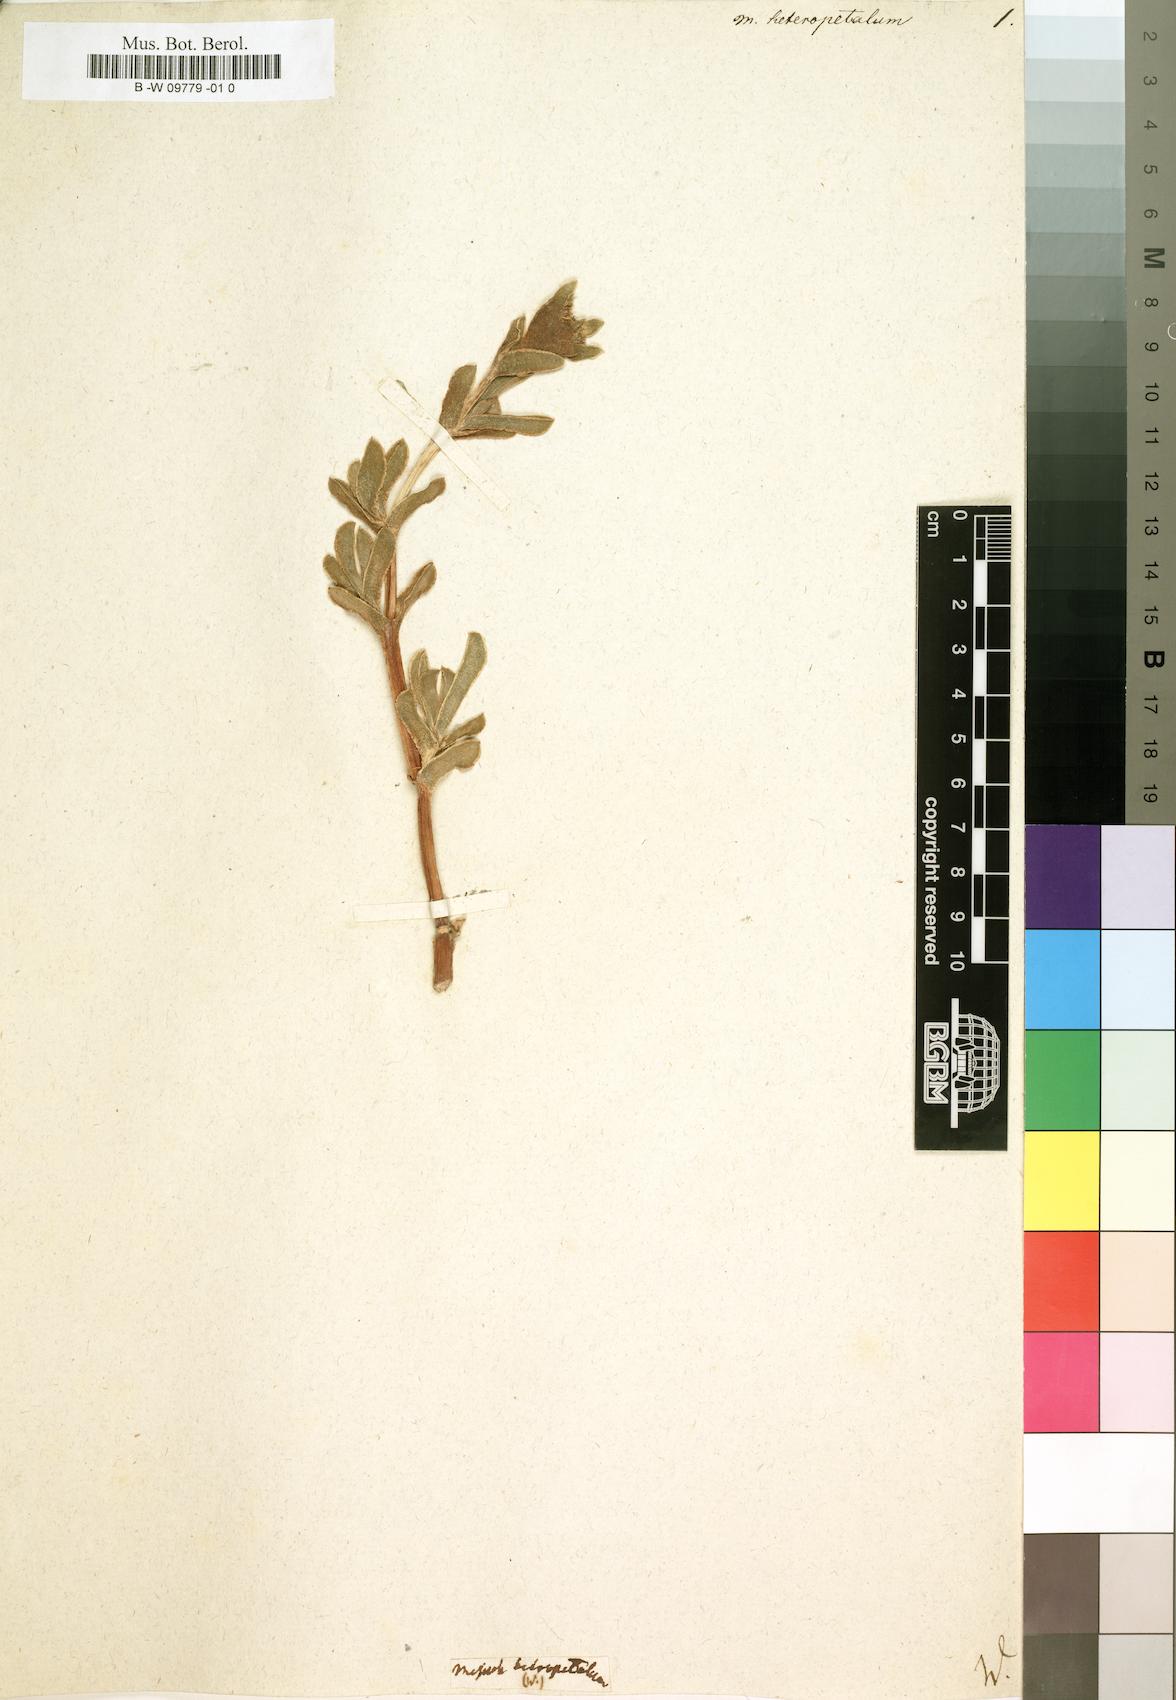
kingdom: Plantae
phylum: Tracheophyta
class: Magnoliopsida
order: Caryophyllales
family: Aizoaceae
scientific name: Aizoaceae
